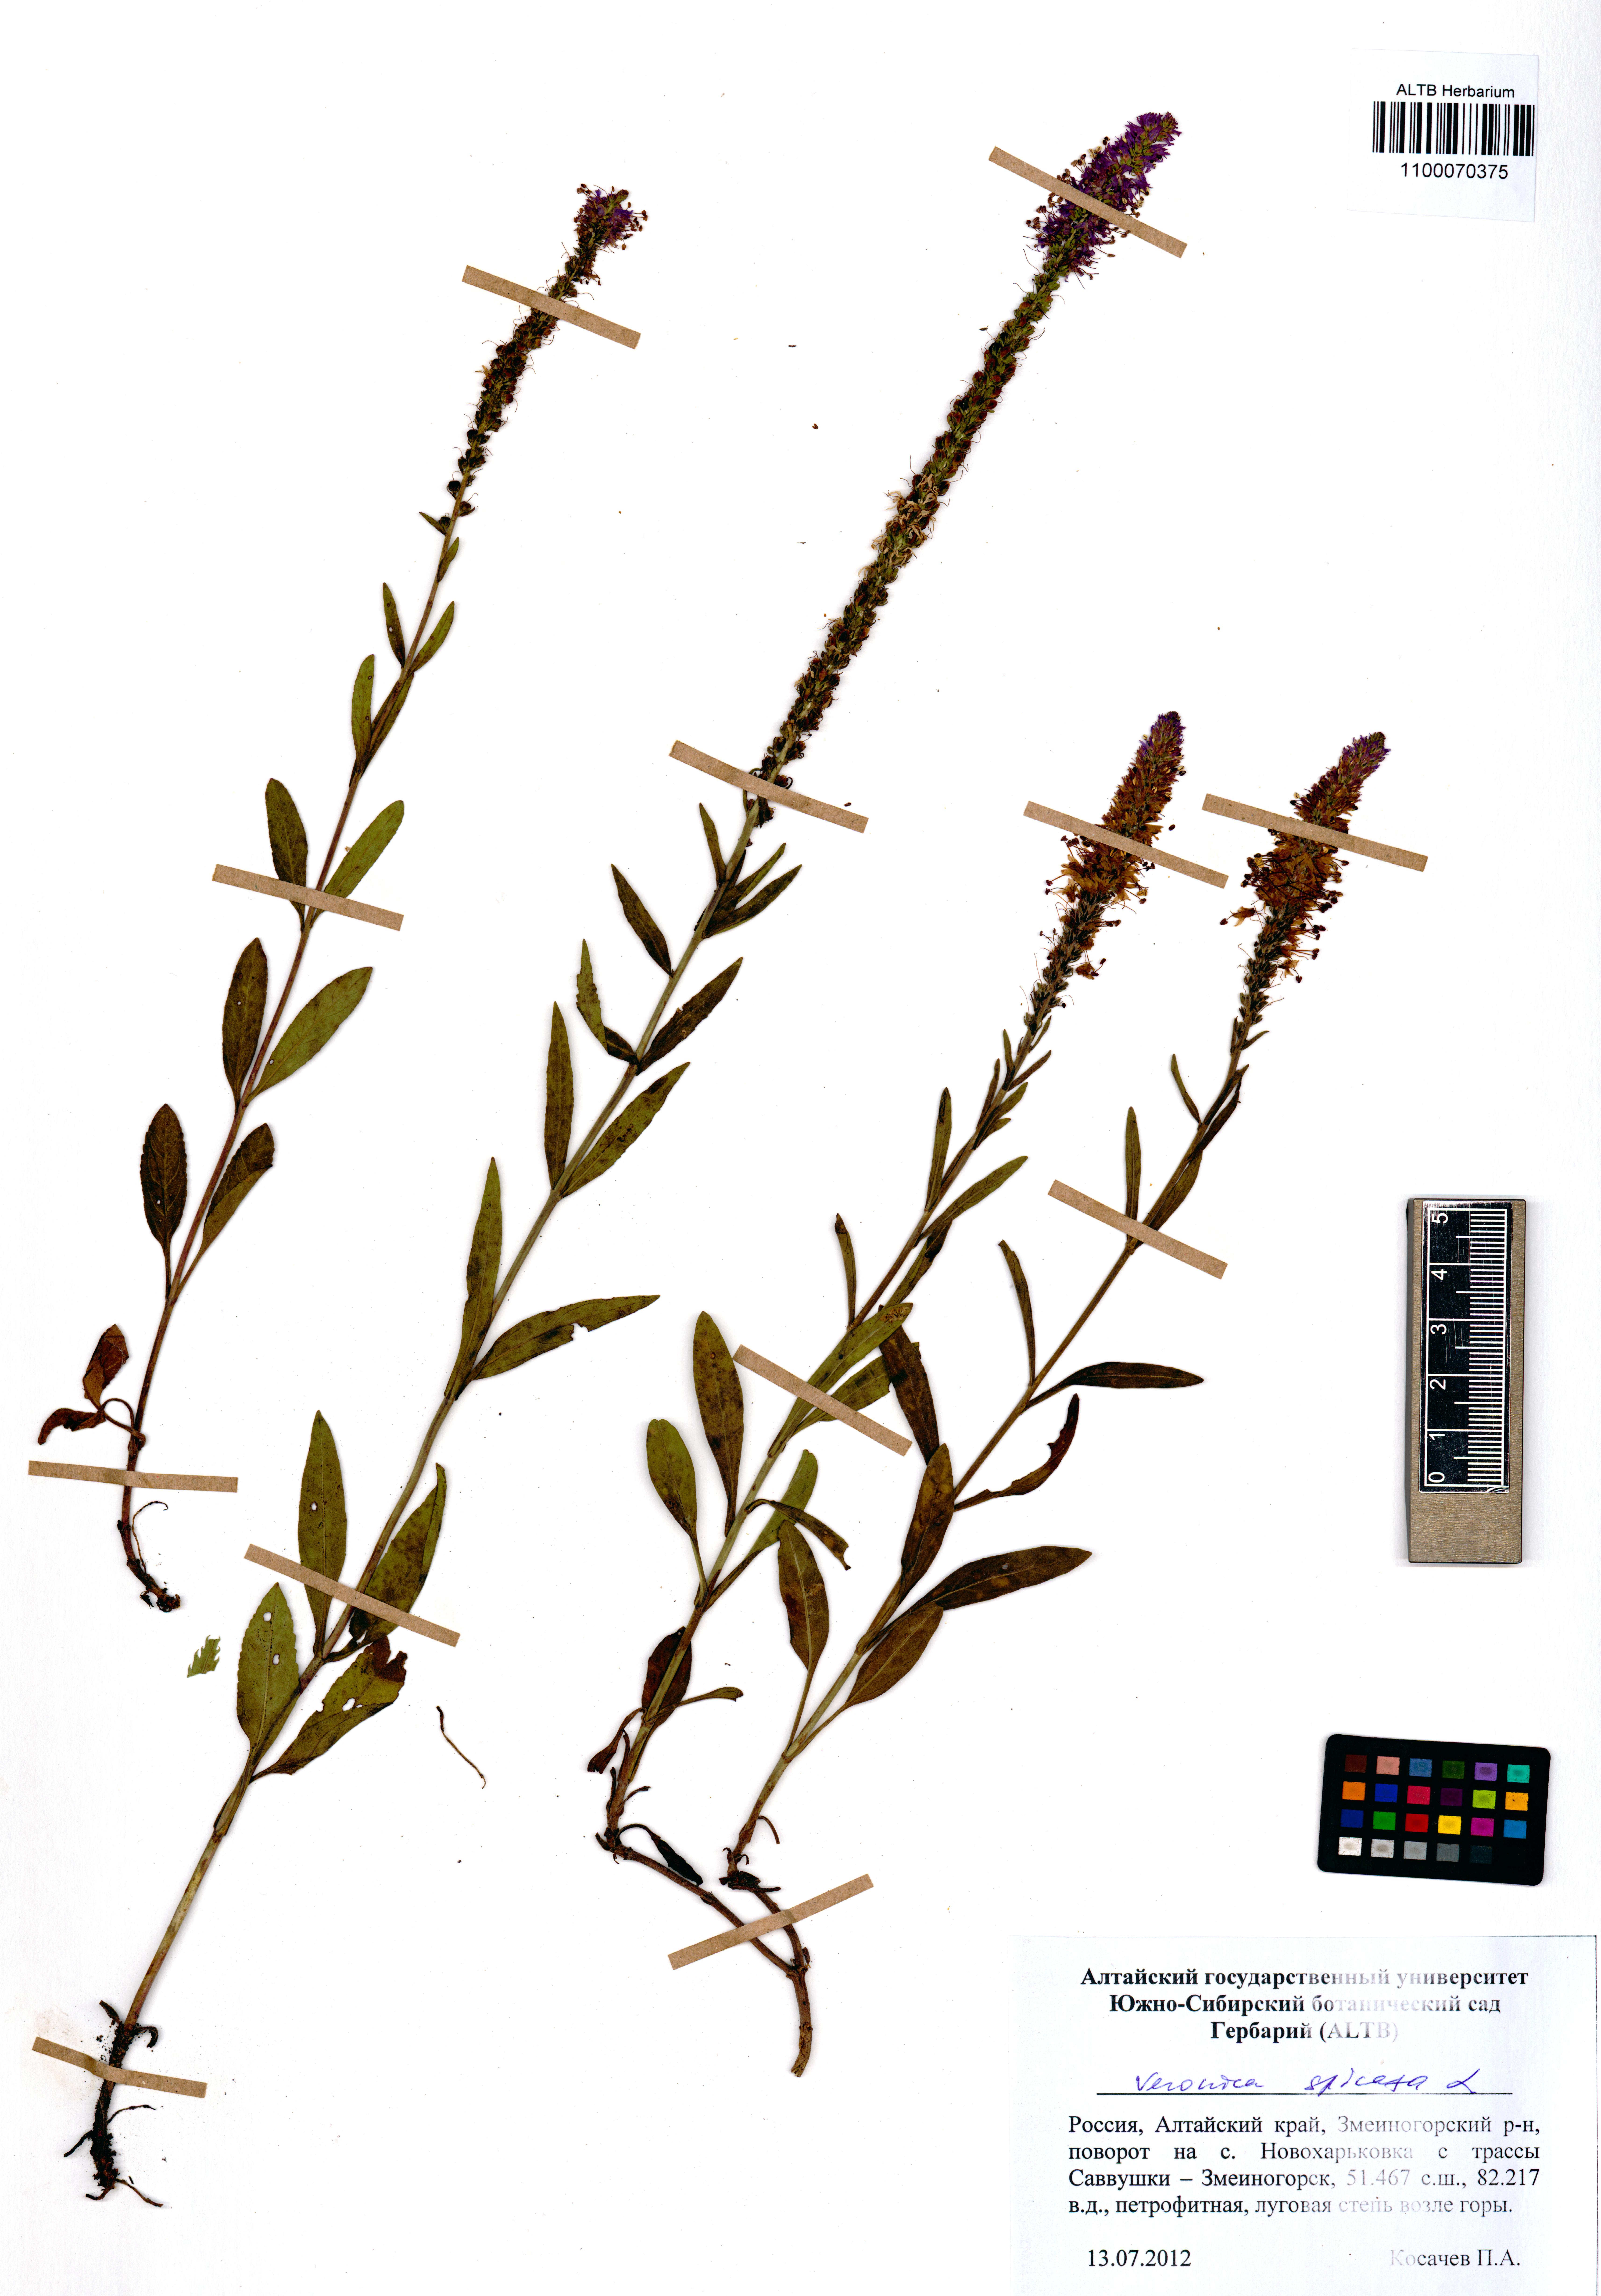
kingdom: Plantae
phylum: Tracheophyta
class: Magnoliopsida
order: Lamiales
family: Plantaginaceae
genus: Veronica
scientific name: Veronica spicata
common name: Spiked speedwell
